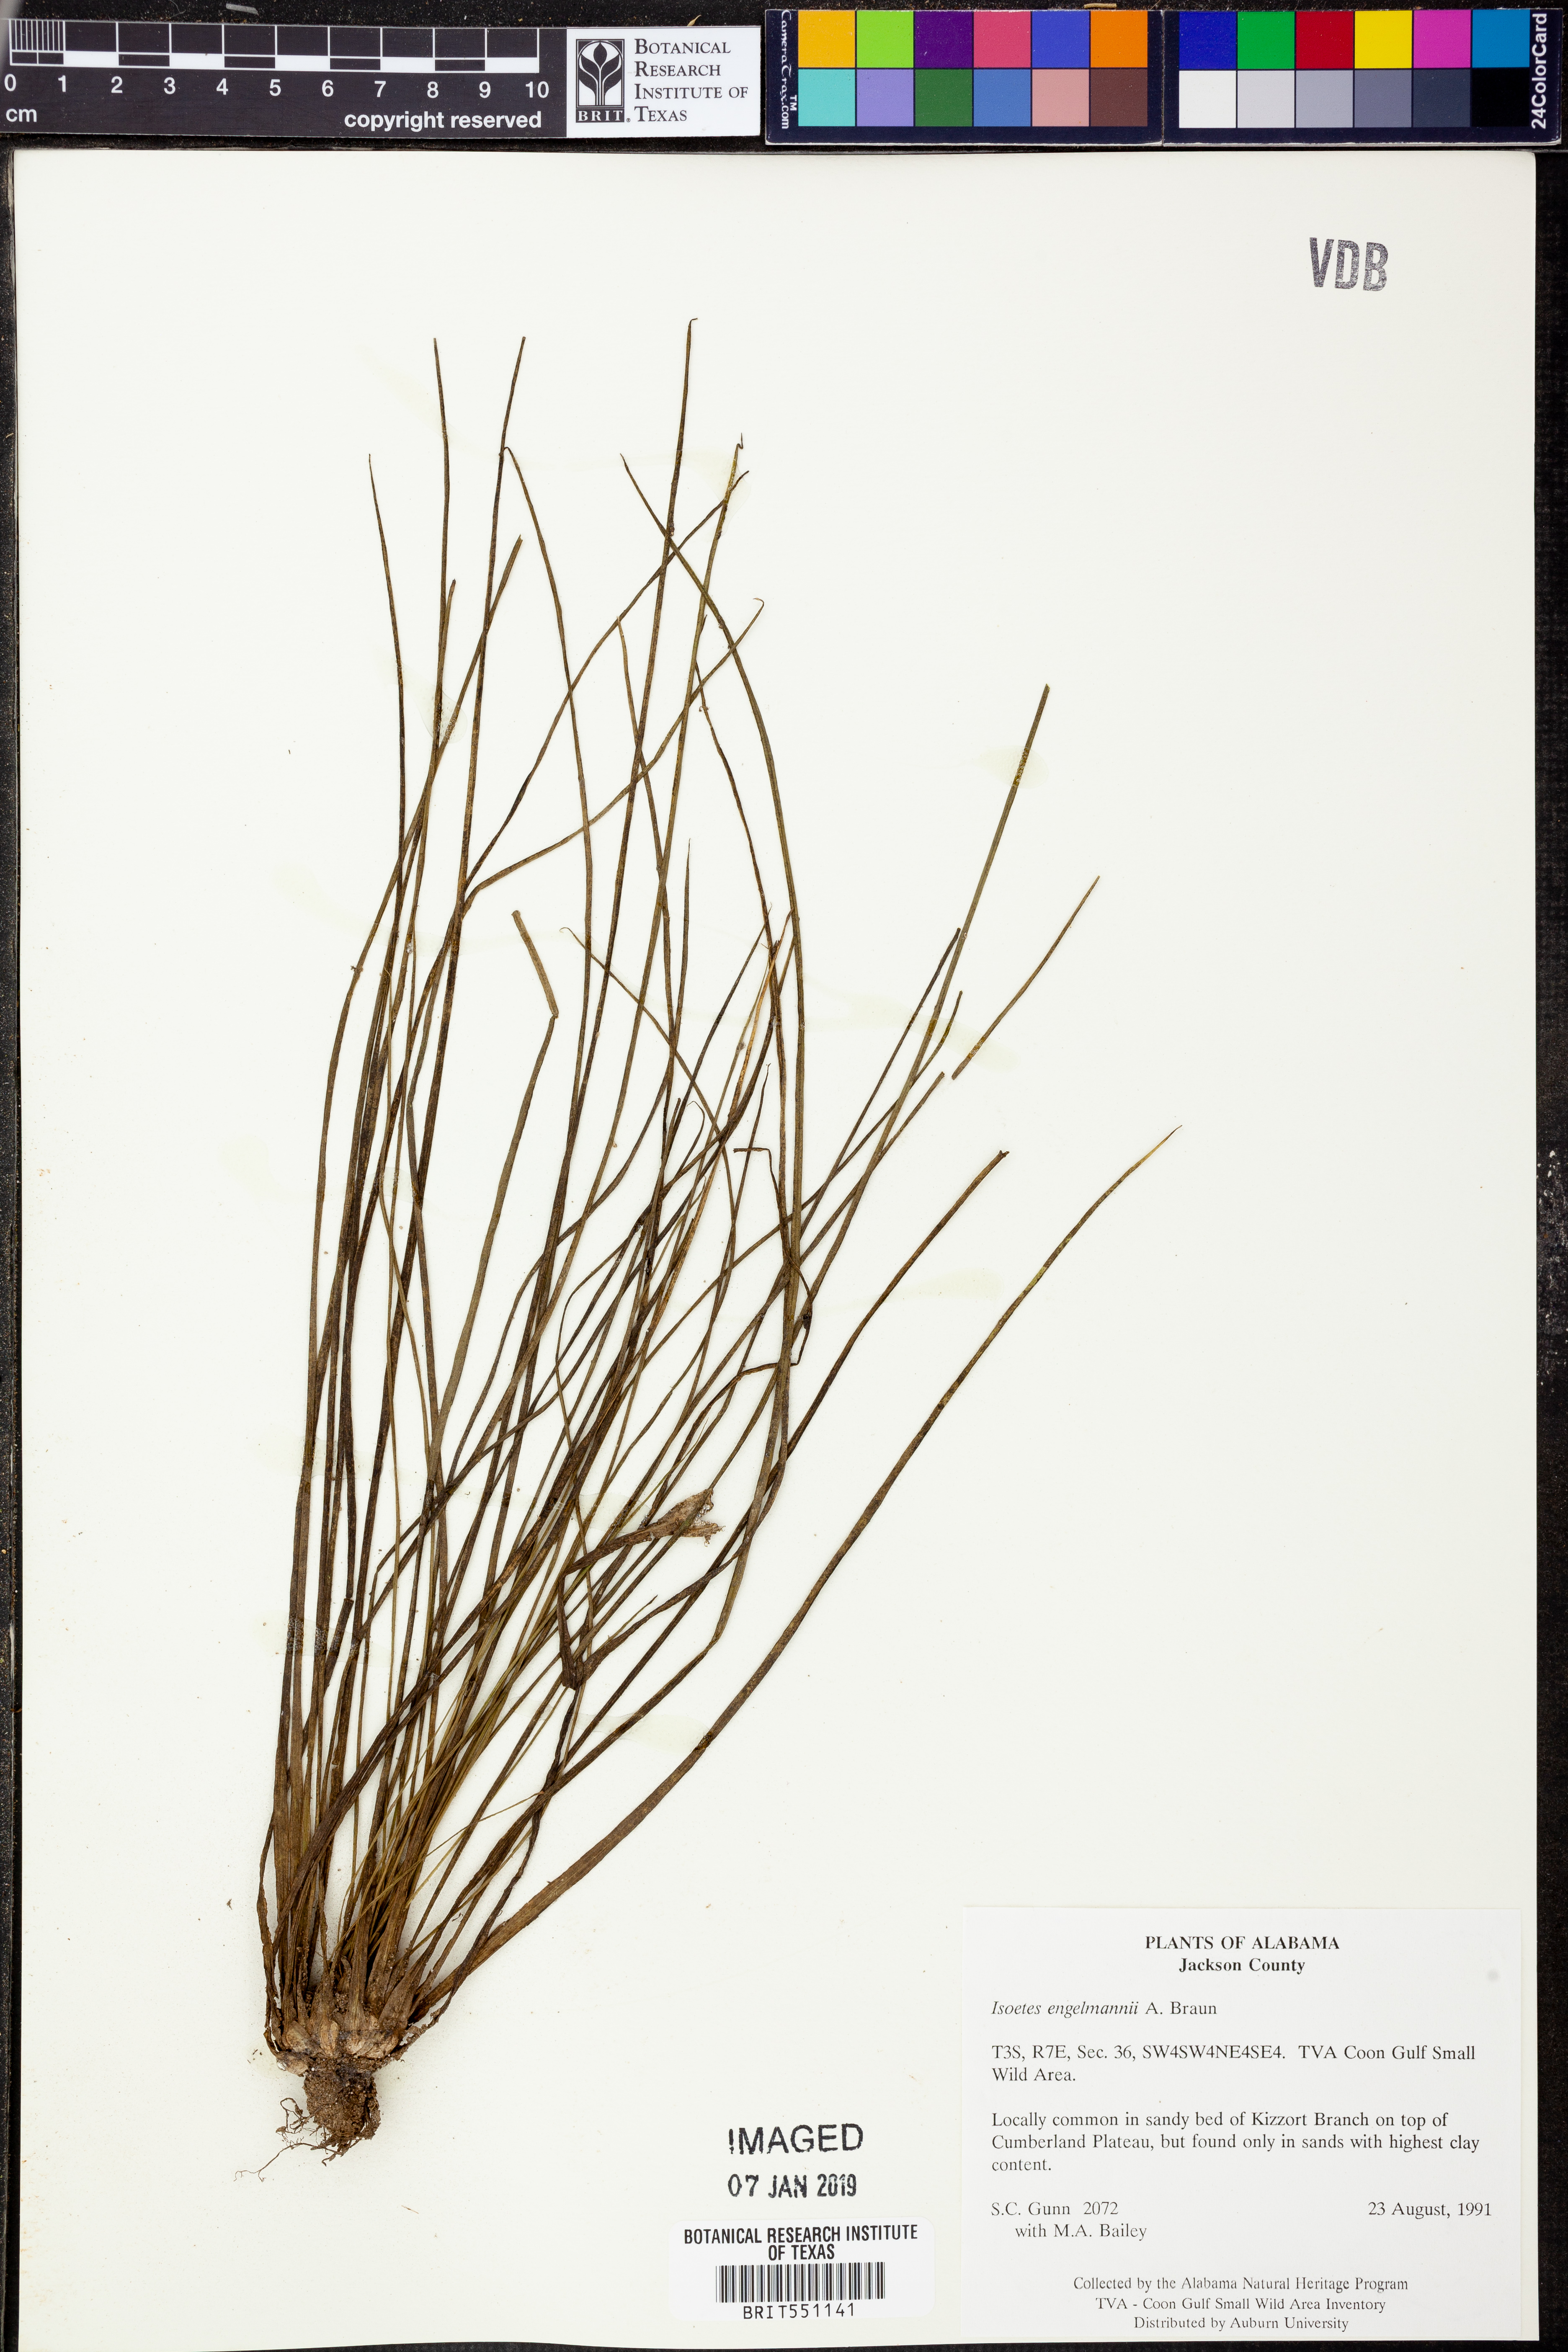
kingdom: Plantae
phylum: Tracheophyta
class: Lycopodiopsida
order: Isoetales
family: Isoetaceae
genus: Isoetes
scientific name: Isoetes
